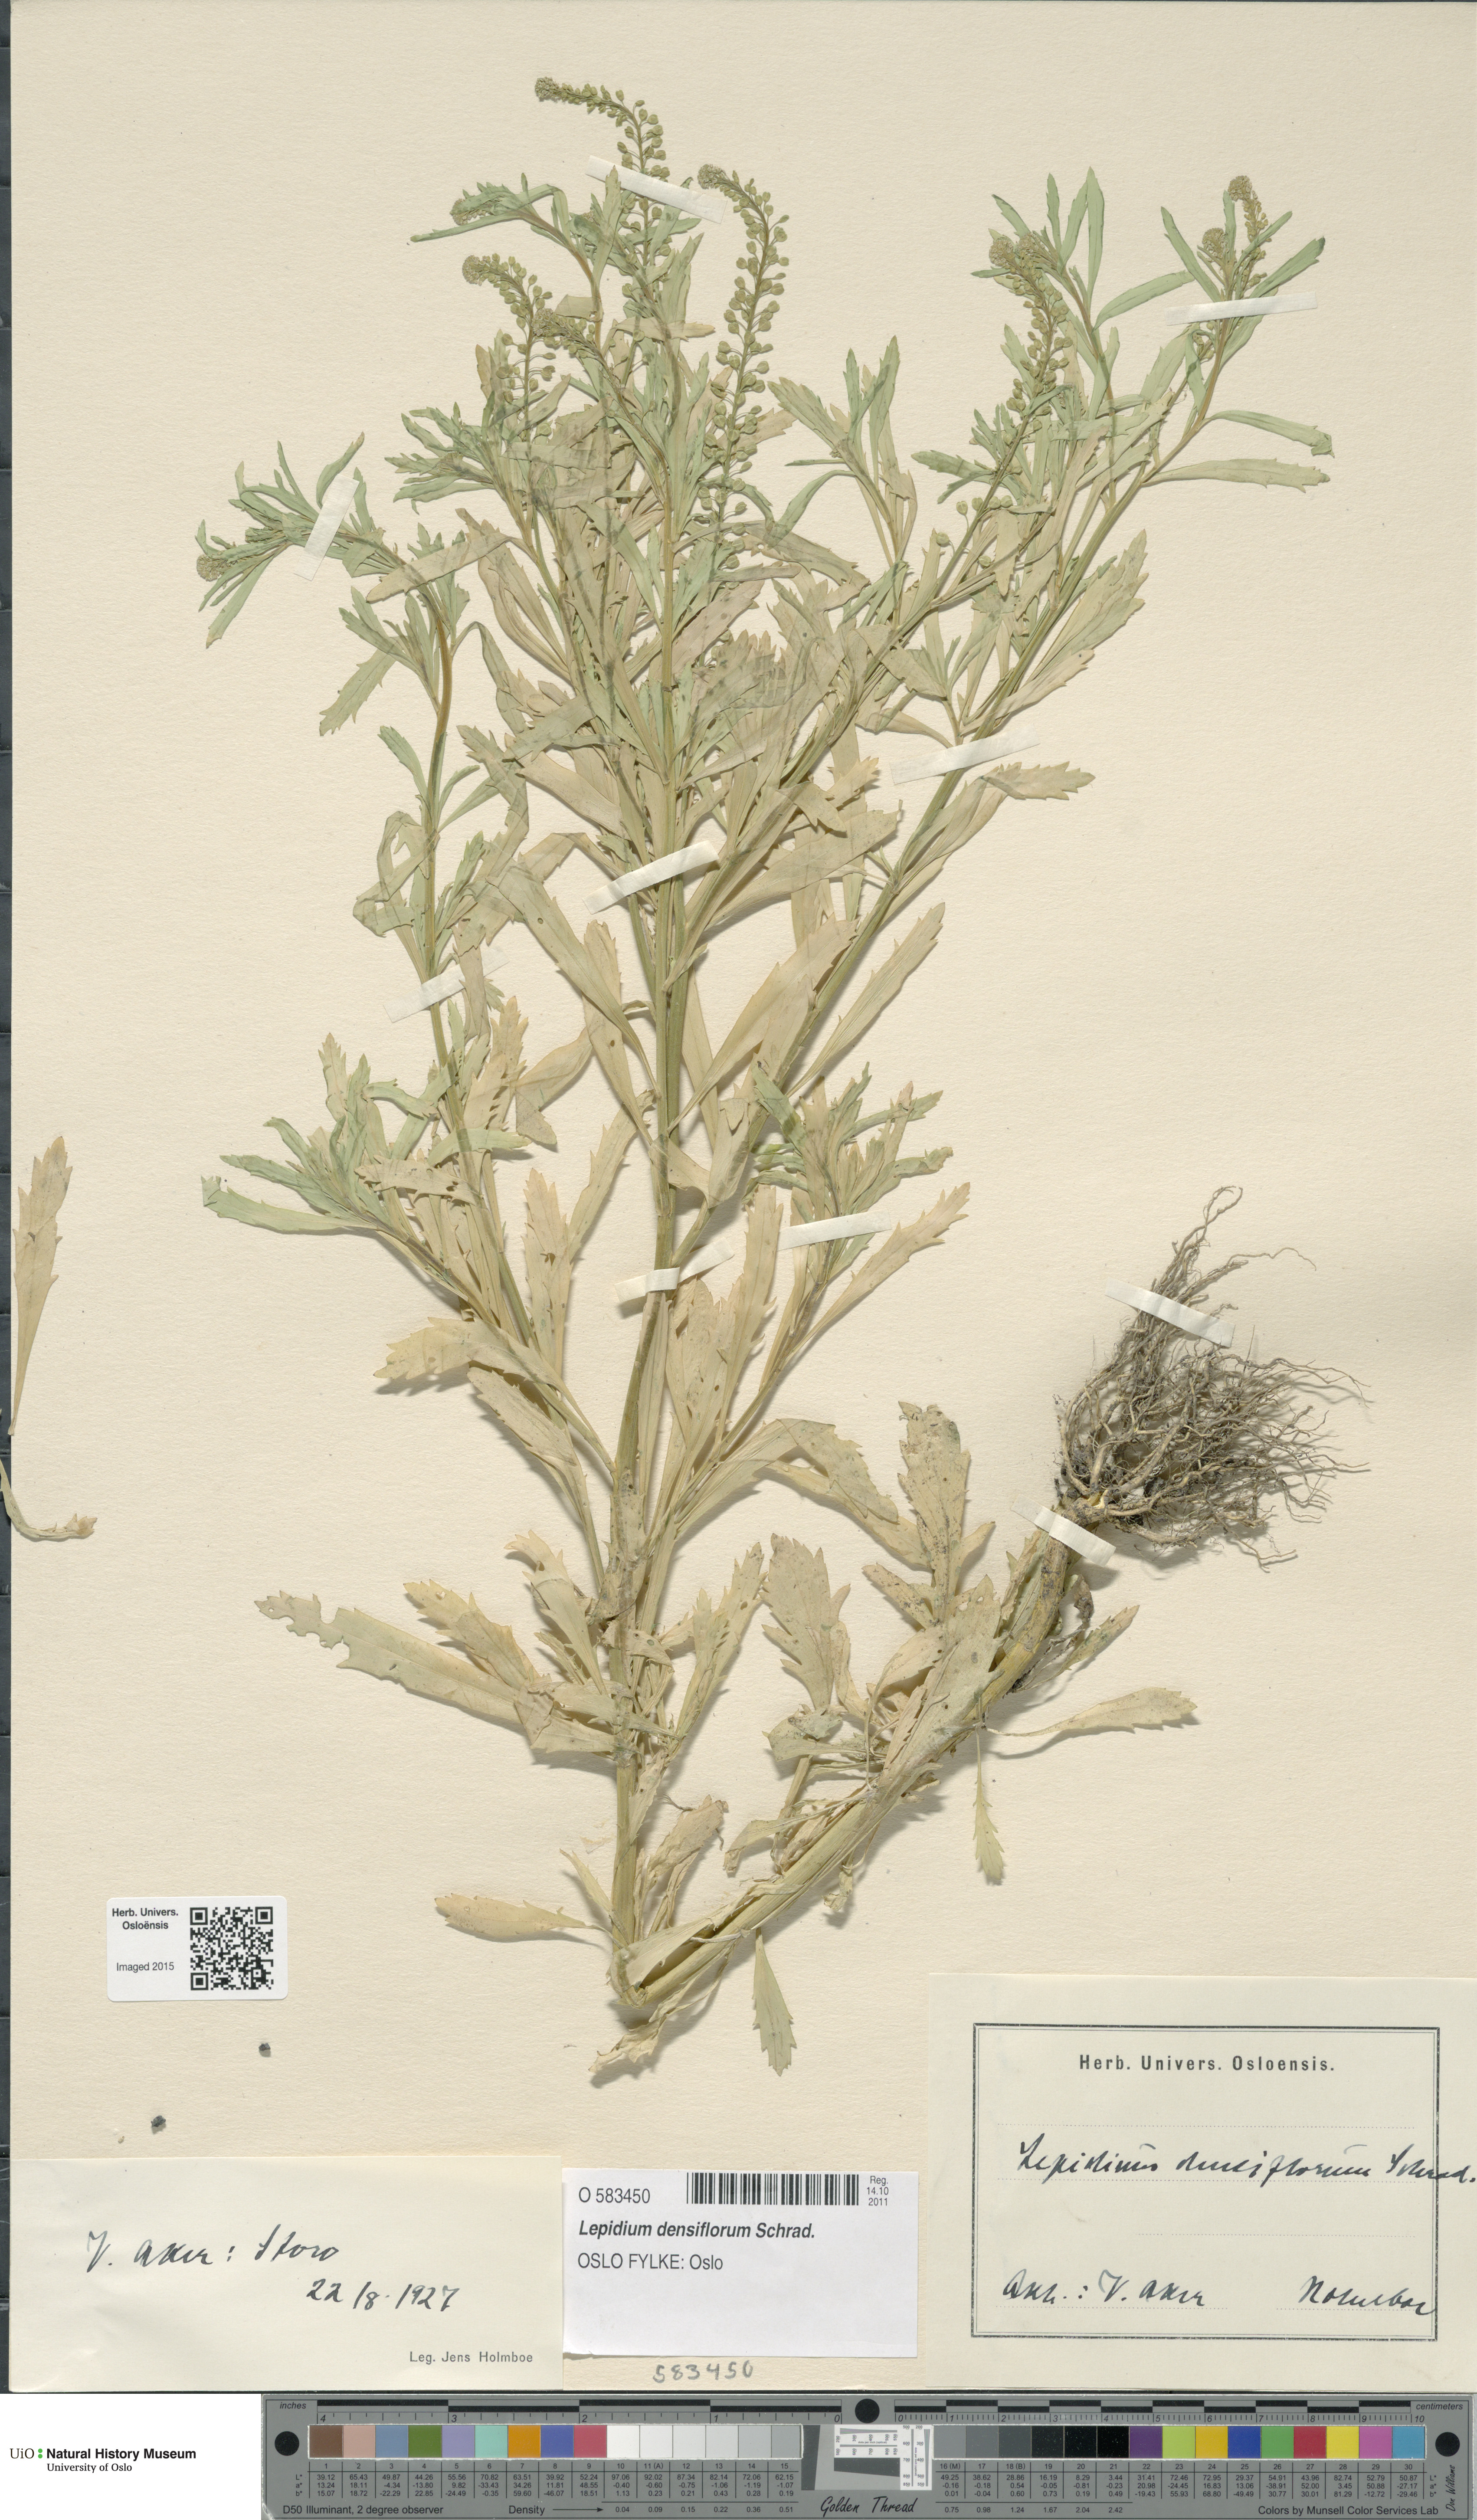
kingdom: Plantae
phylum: Tracheophyta
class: Magnoliopsida
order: Brassicales
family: Brassicaceae
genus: Lepidium
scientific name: Lepidium densiflorum
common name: Miner's pepperwort
